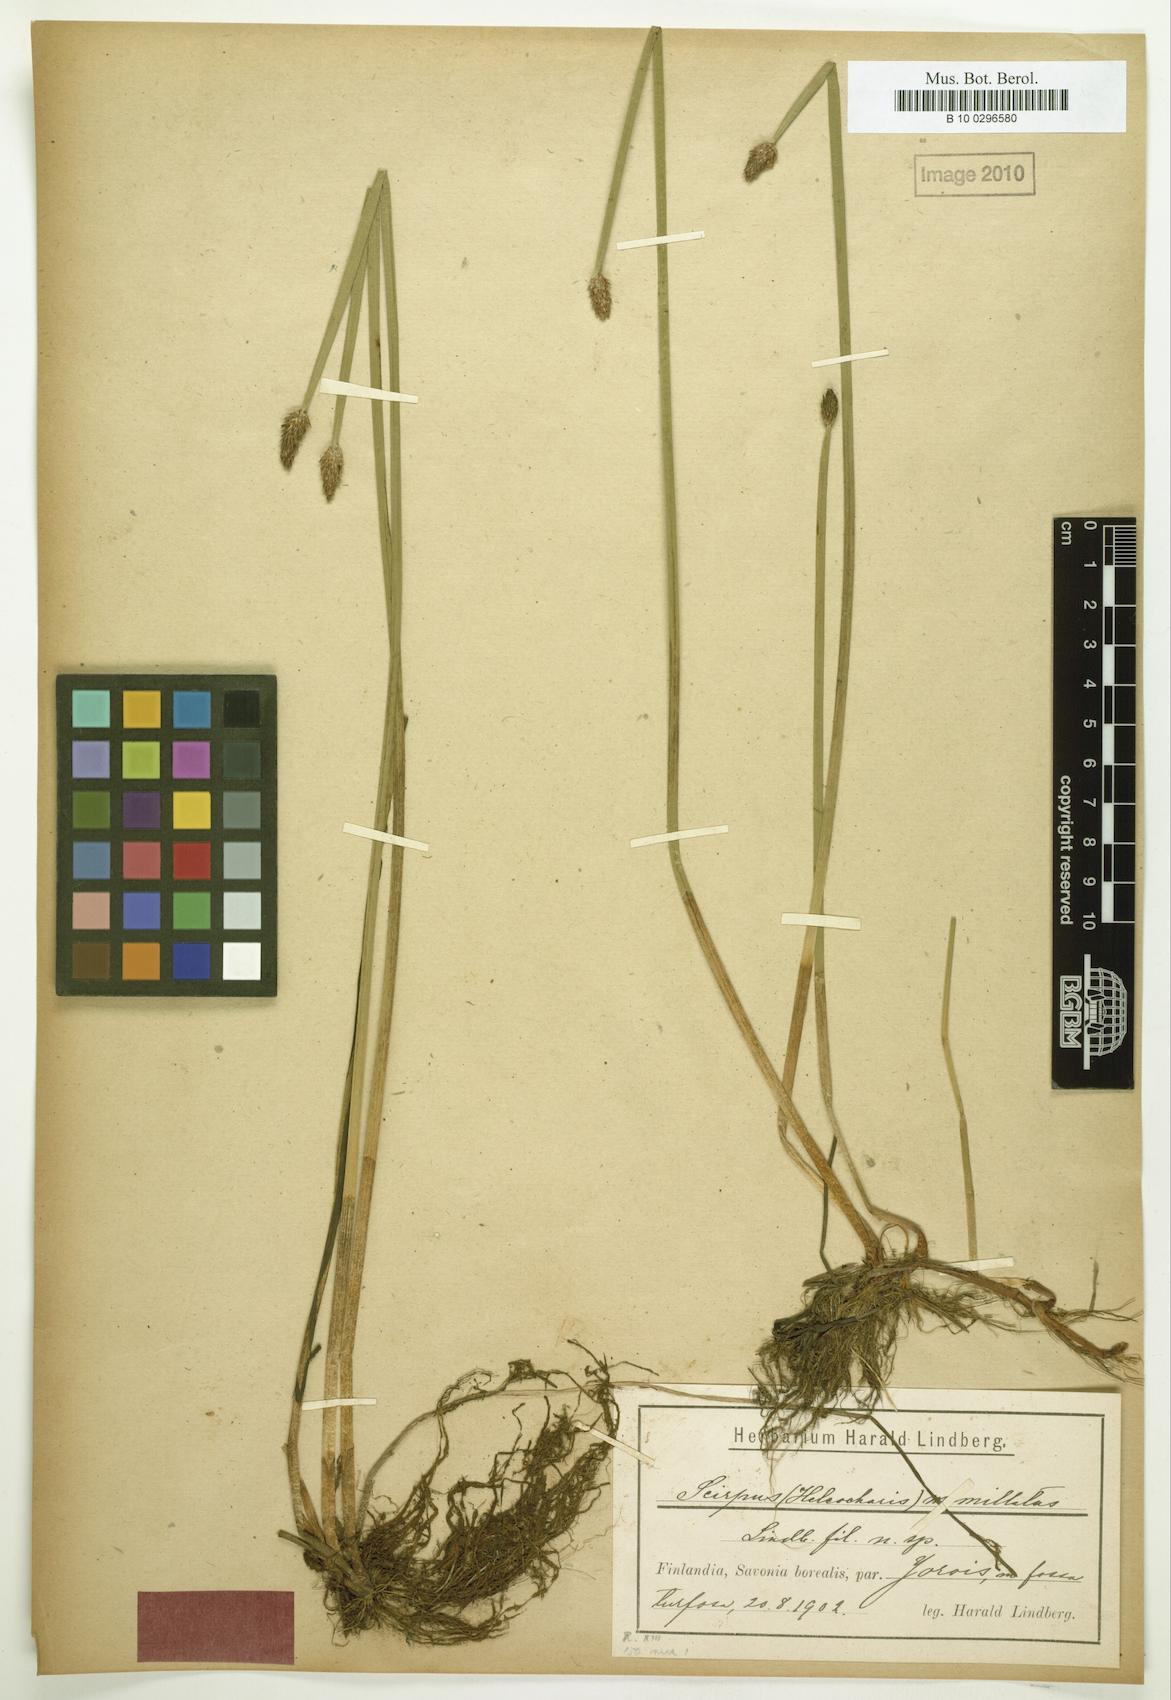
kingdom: Plantae
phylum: Tracheophyta
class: Liliopsida
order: Poales
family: Cyperaceae
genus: Eleocharis
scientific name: Eleocharis mamillata
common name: Northern spike-rush
